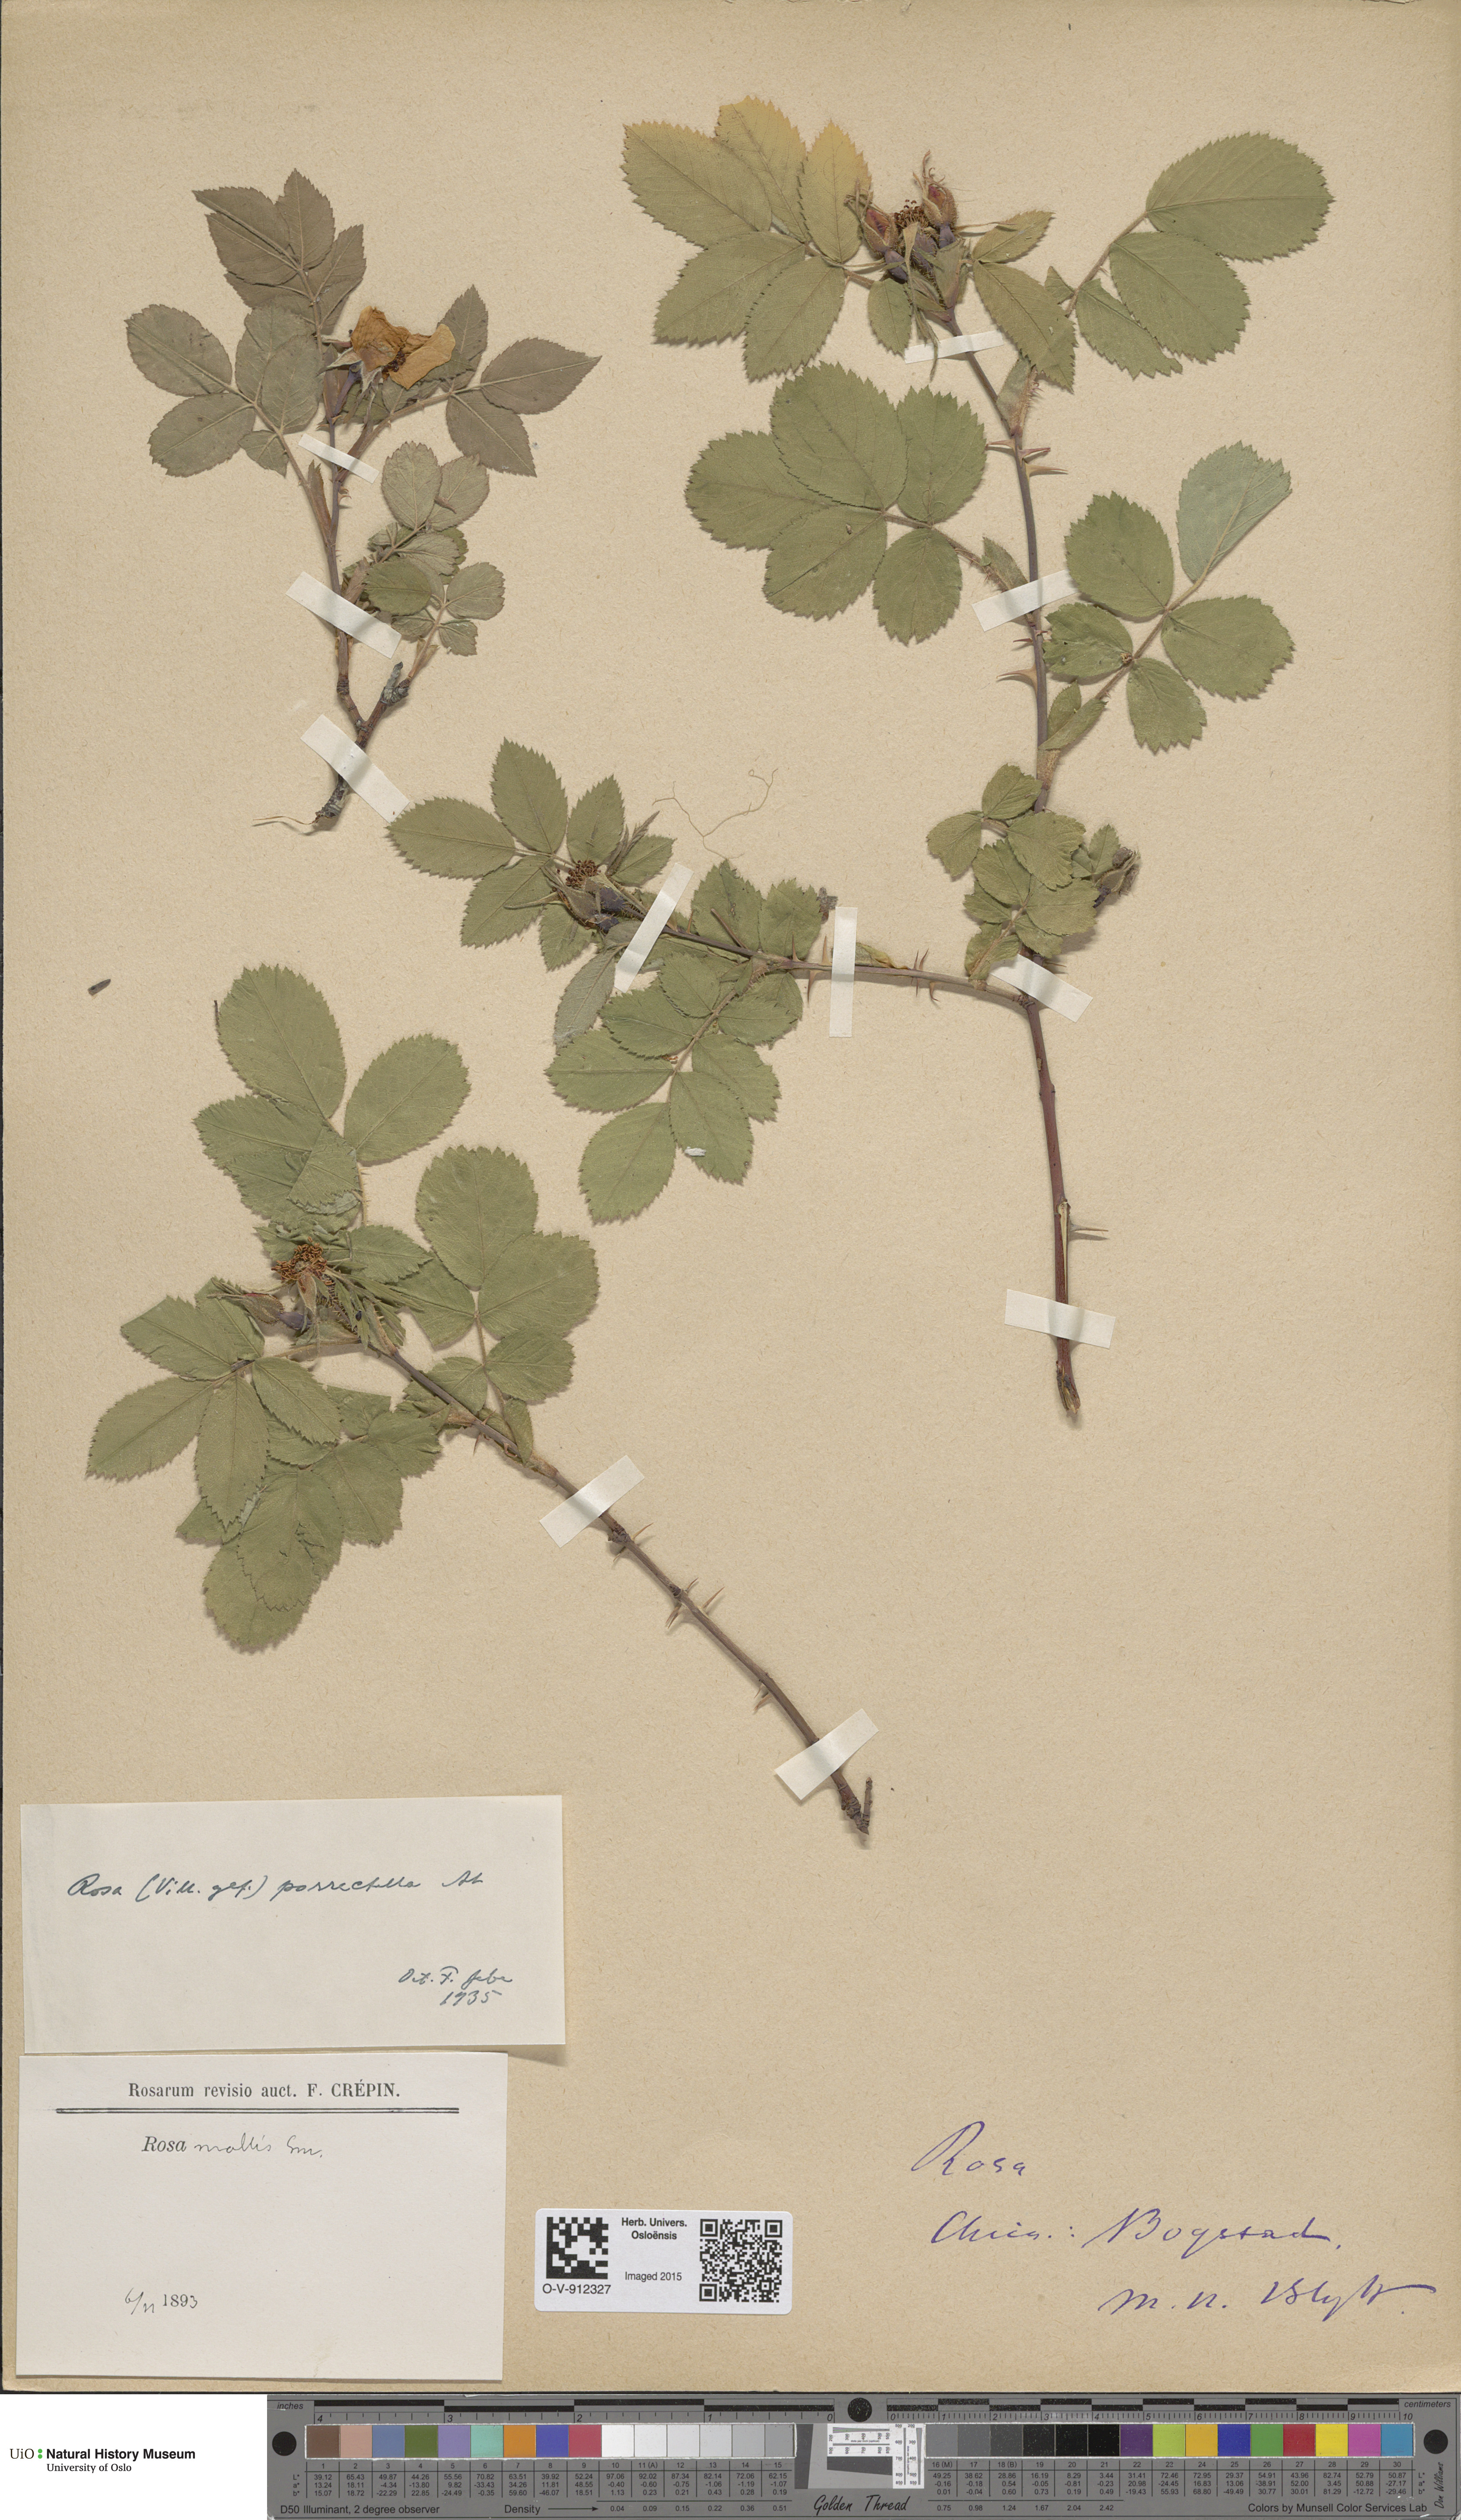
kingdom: Plantae
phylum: Tracheophyta
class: Magnoliopsida
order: Rosales
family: Rosaceae
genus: Rosa
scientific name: Rosa mollis
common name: Rose
